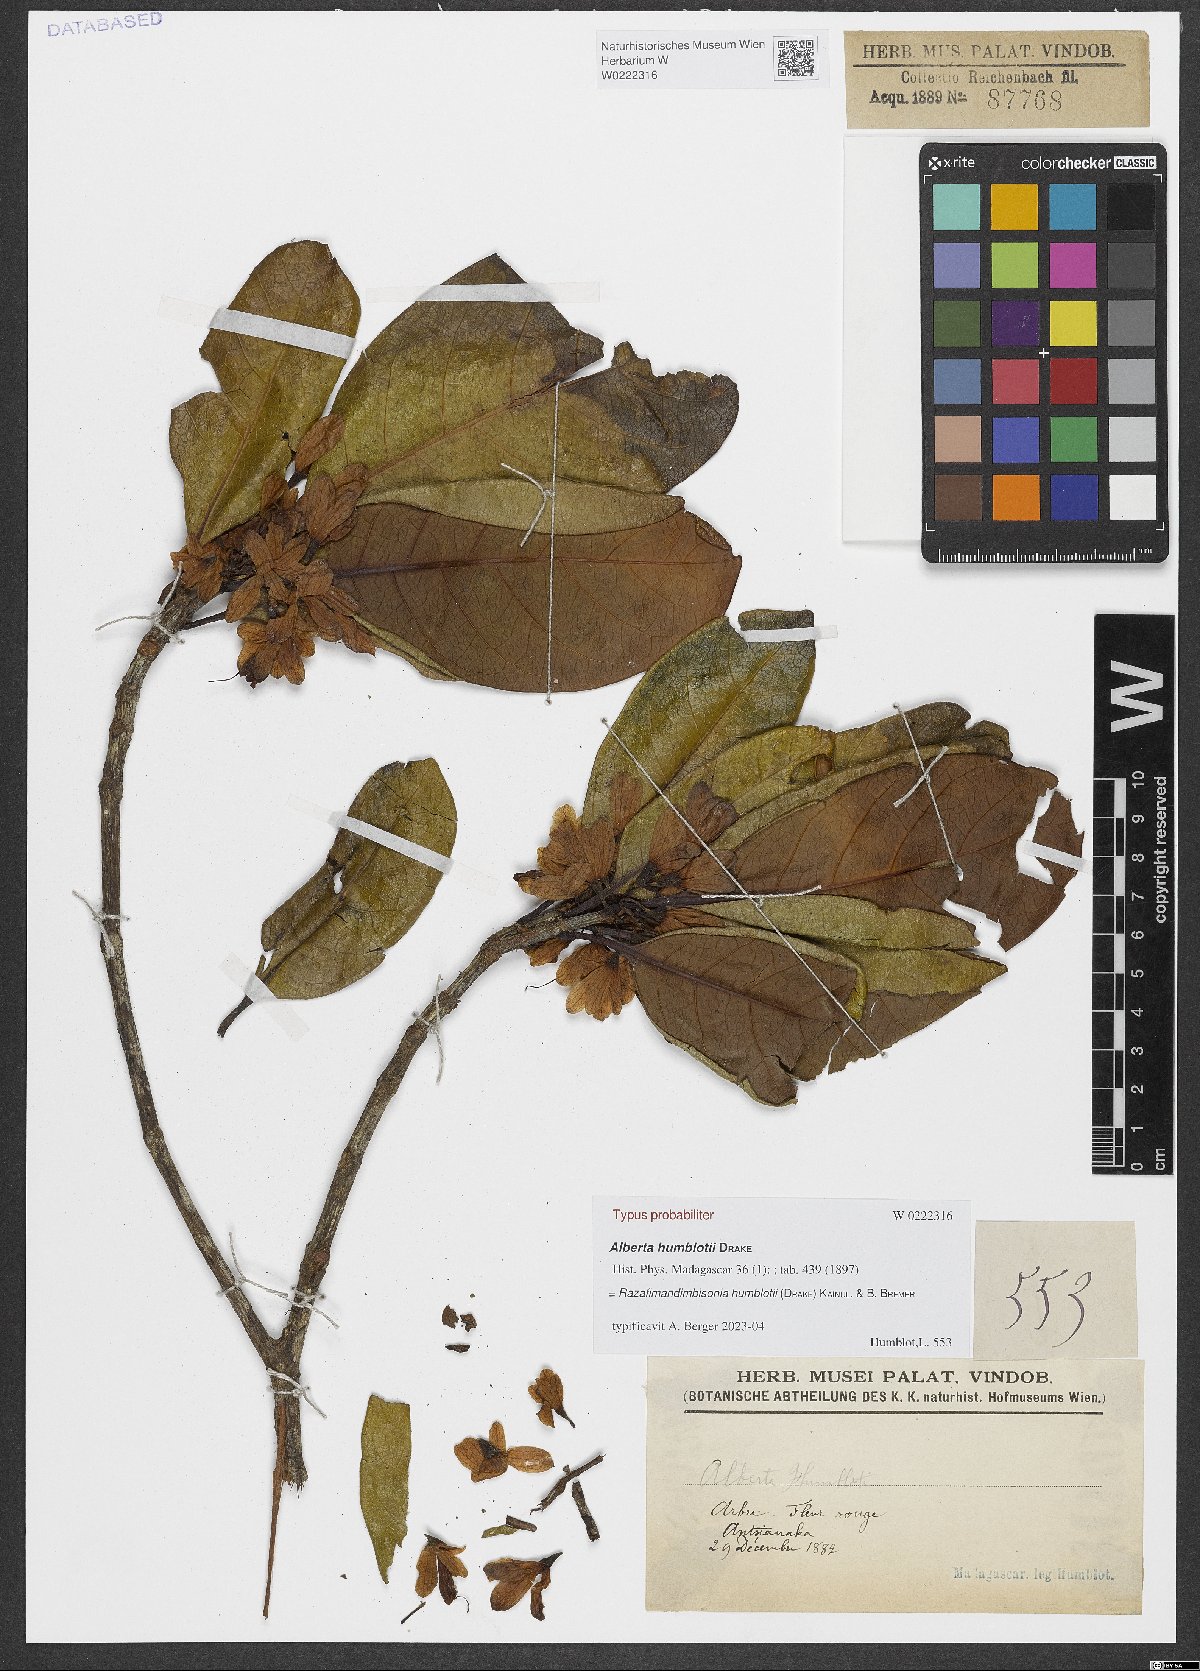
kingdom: Plantae
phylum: Tracheophyta
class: Magnoliopsida
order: Gentianales
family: Rubiaceae
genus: Razafimandimbisonia
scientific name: Razafimandimbisonia humblotii
